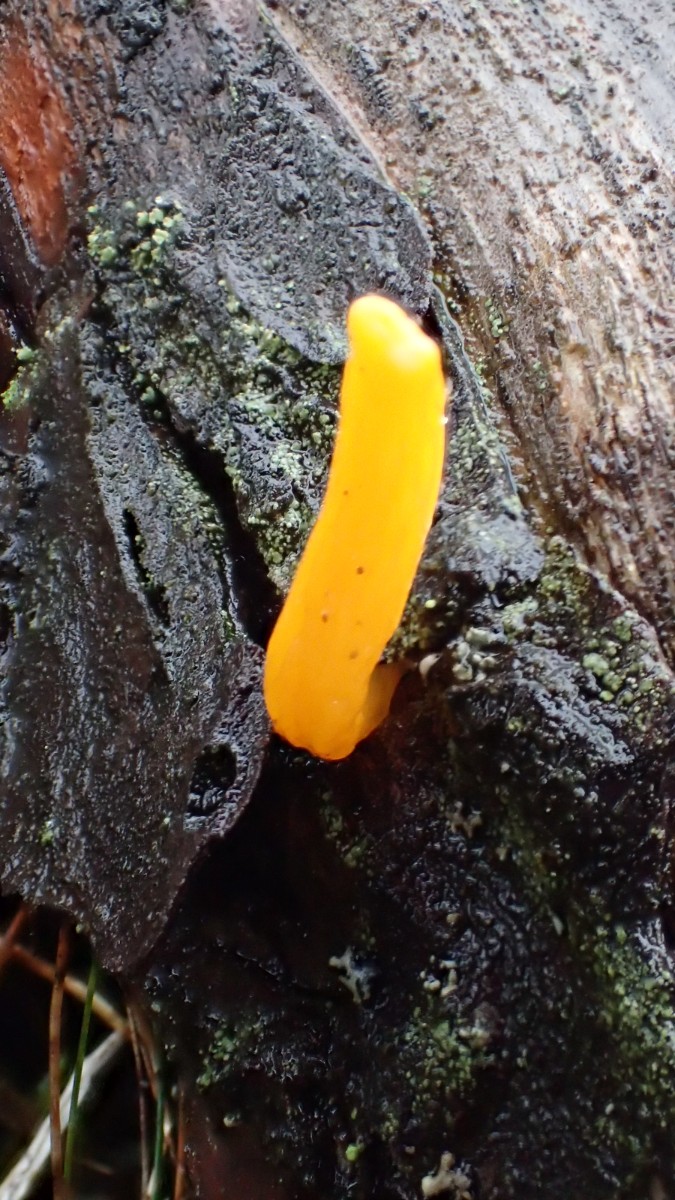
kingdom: Fungi
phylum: Basidiomycota
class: Dacrymycetes
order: Dacrymycetales
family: Dacrymycetaceae
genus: Calocera
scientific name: Calocera
